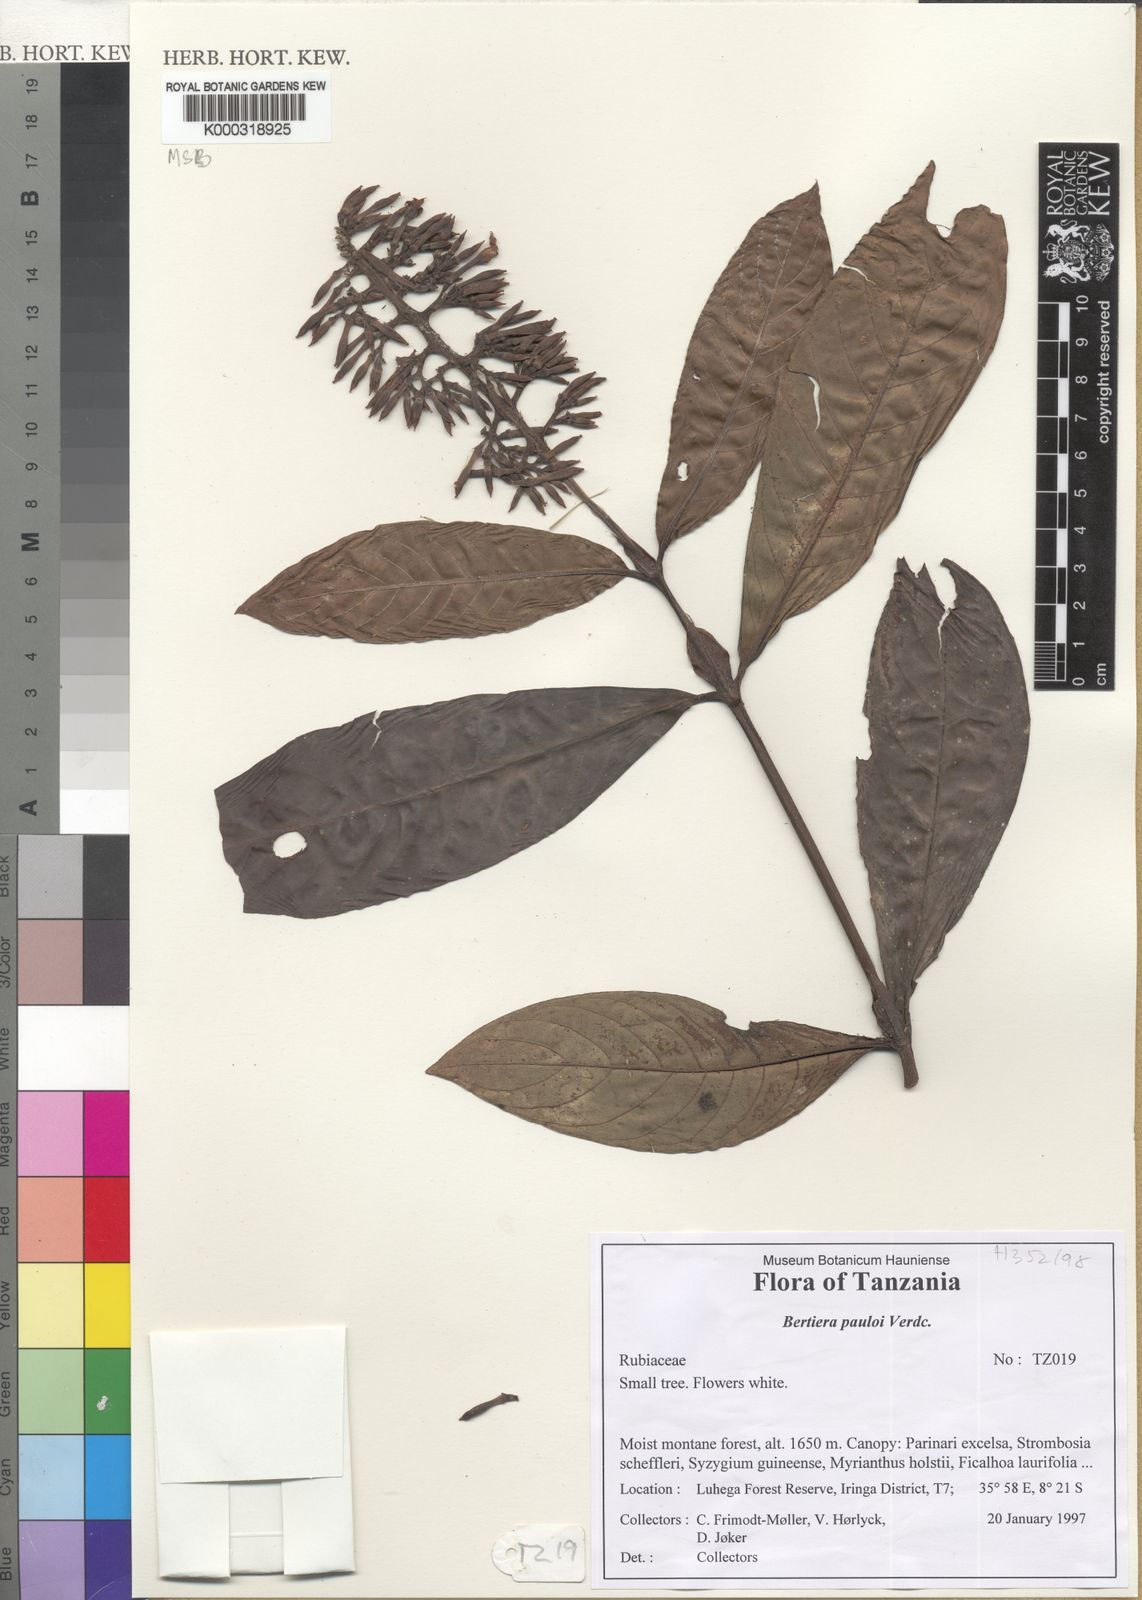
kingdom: Plantae
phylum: Tracheophyta
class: Magnoliopsida
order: Gentianales
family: Rubiaceae
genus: Bertiera
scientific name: Bertiera pauloi
